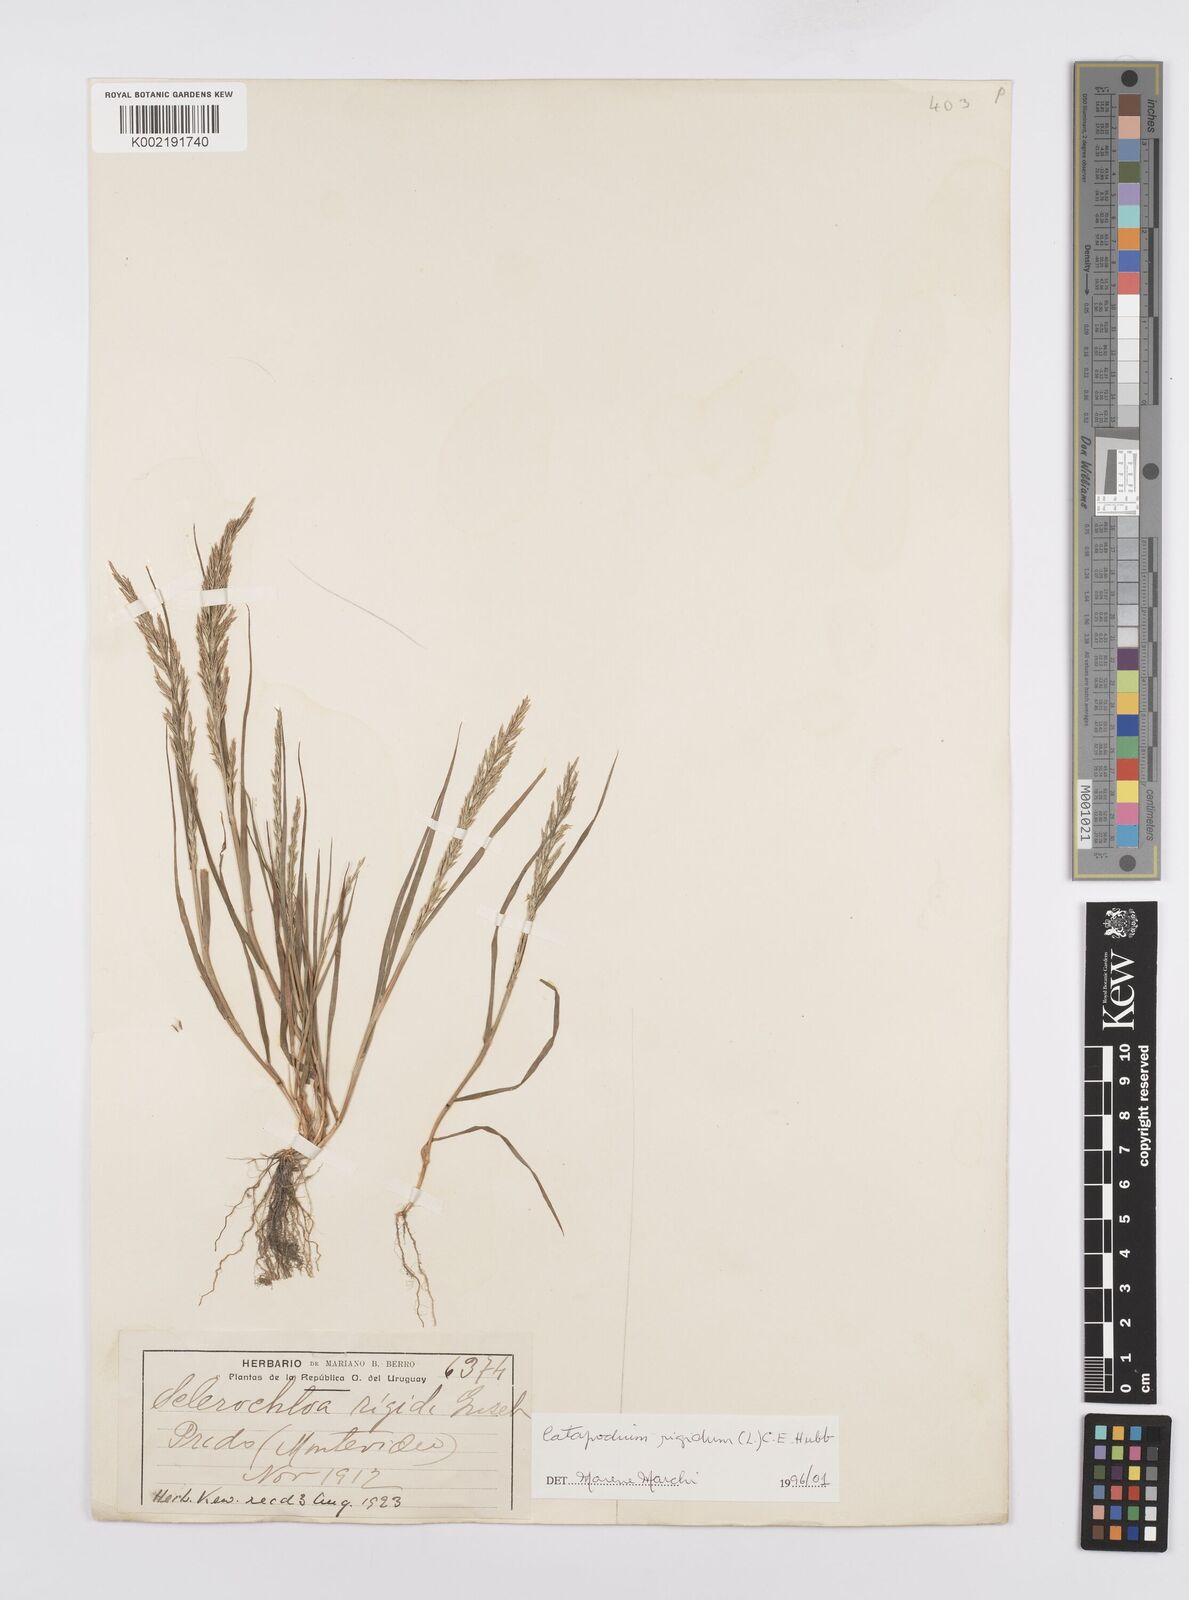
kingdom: Plantae
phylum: Tracheophyta
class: Liliopsida
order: Poales
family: Poaceae
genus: Catapodium
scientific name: Catapodium rigidum
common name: Fern-grass
